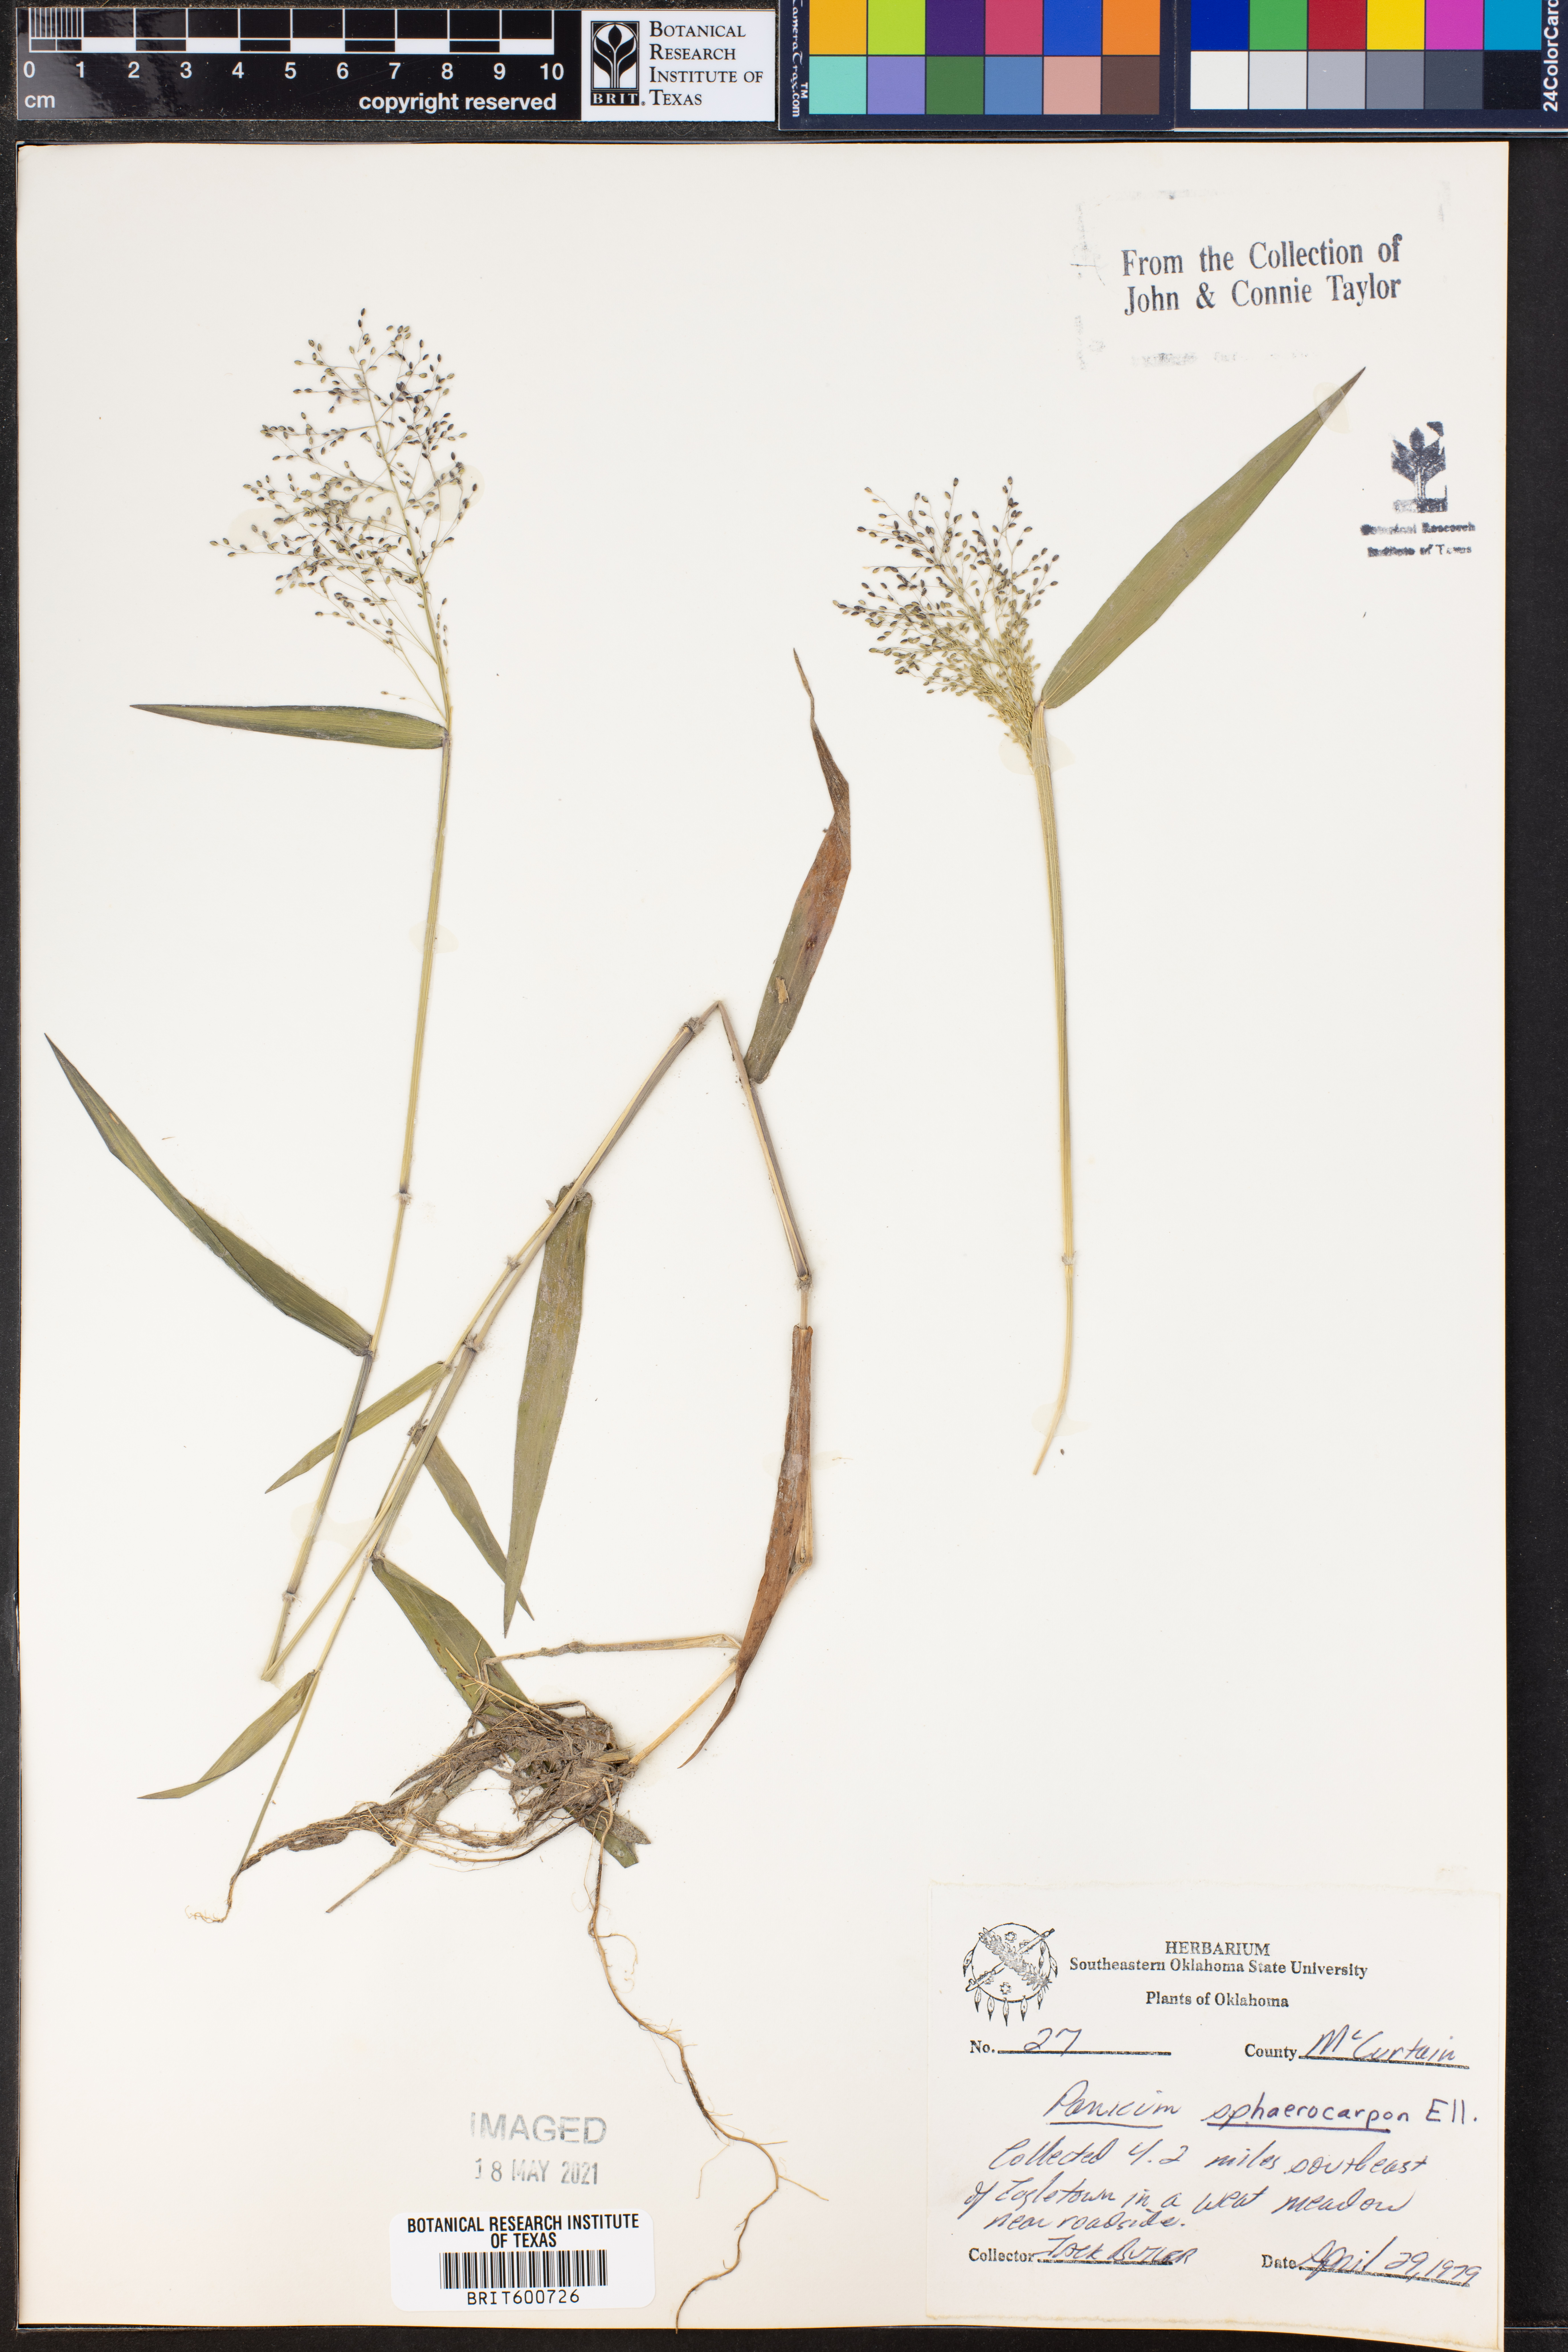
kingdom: Plantae
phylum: Tracheophyta
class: Liliopsida
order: Poales
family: Poaceae
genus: Dichanthelium
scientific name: Dichanthelium sphaerocarpon
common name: Round-fruited panicgrass
